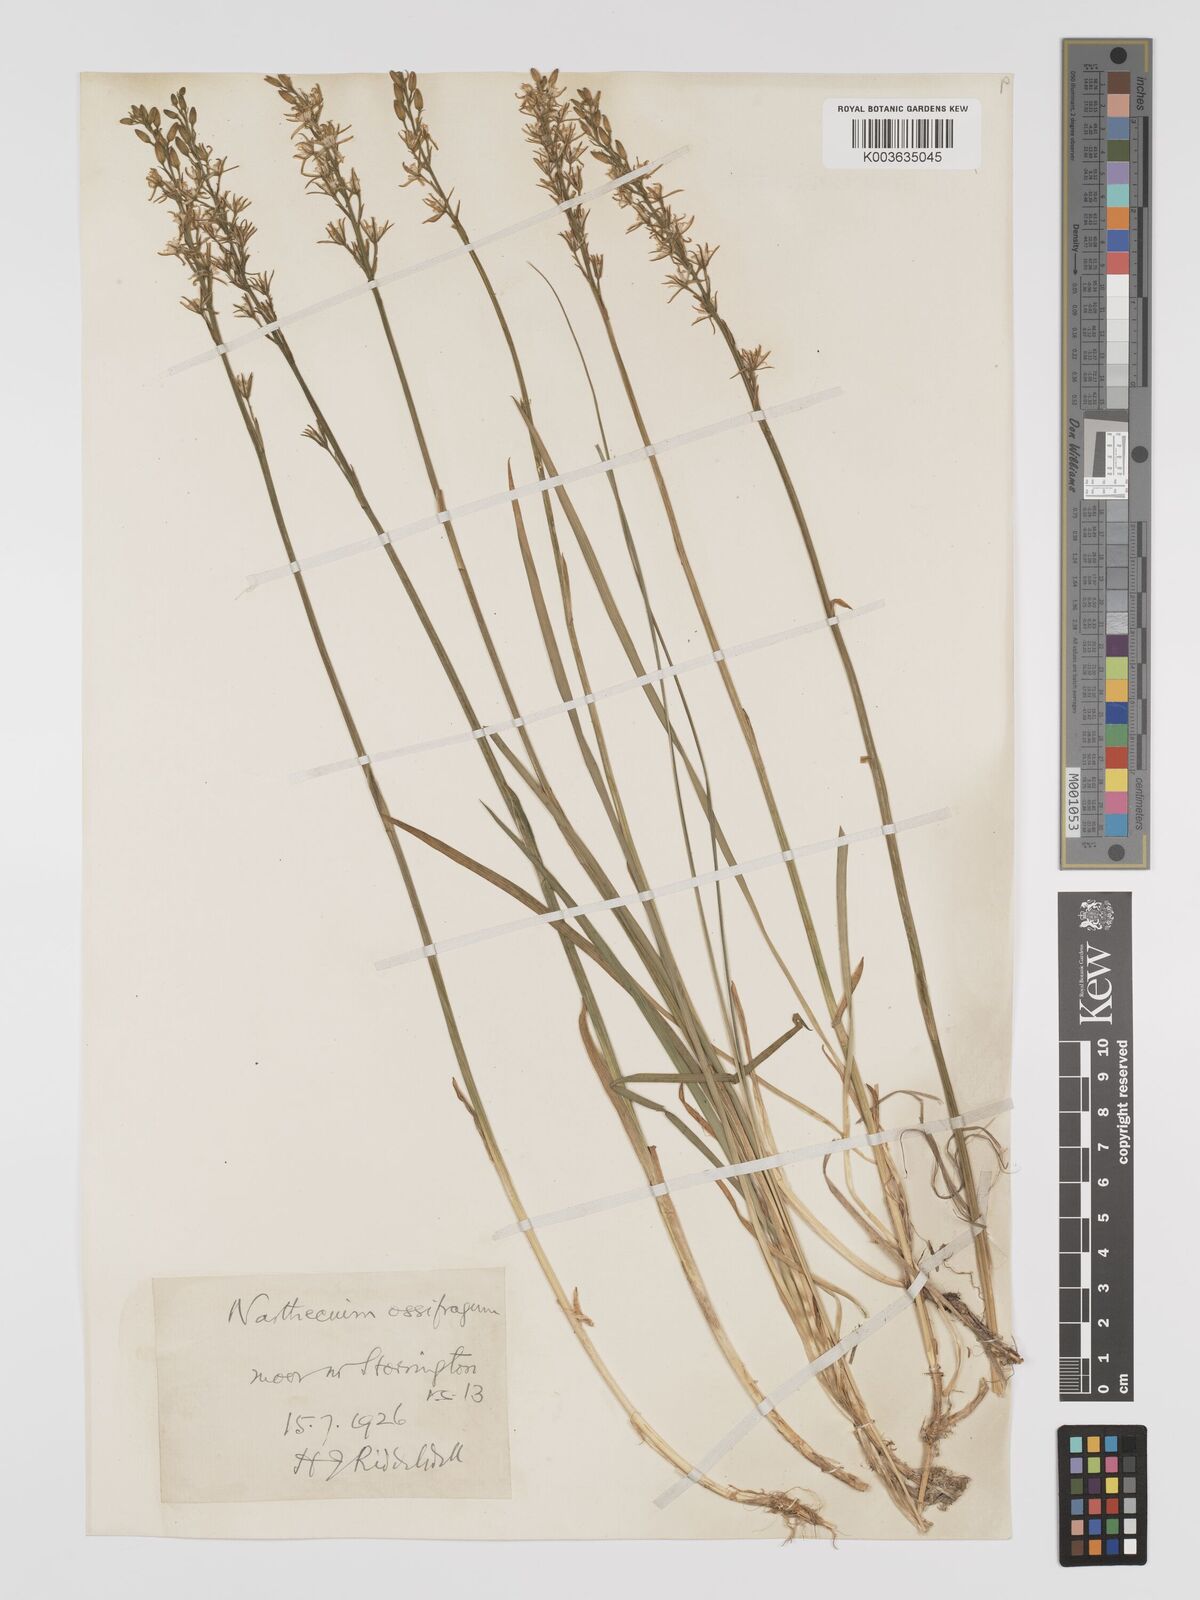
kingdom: Plantae
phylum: Tracheophyta
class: Liliopsida
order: Dioscoreales
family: Nartheciaceae
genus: Narthecium
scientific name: Narthecium
